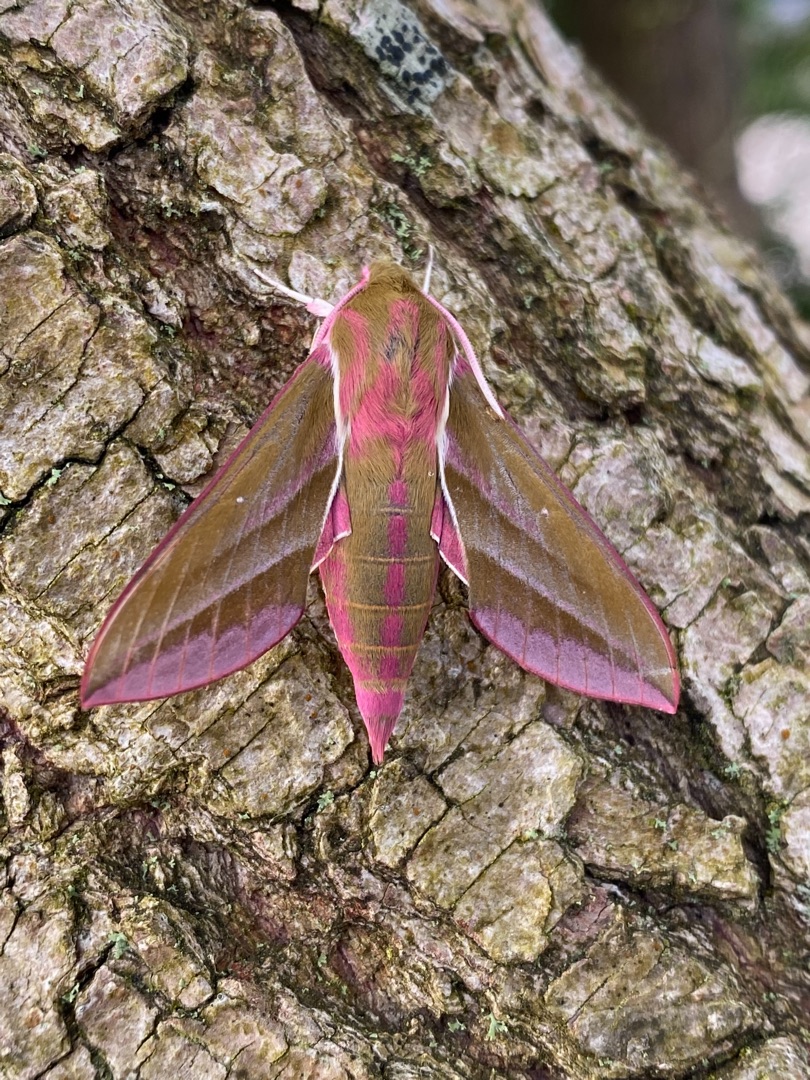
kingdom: Animalia
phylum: Arthropoda
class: Insecta
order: Lepidoptera
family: Sphingidae
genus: Deilephila
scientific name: Deilephila elpenor
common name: Dueurtsværmer
